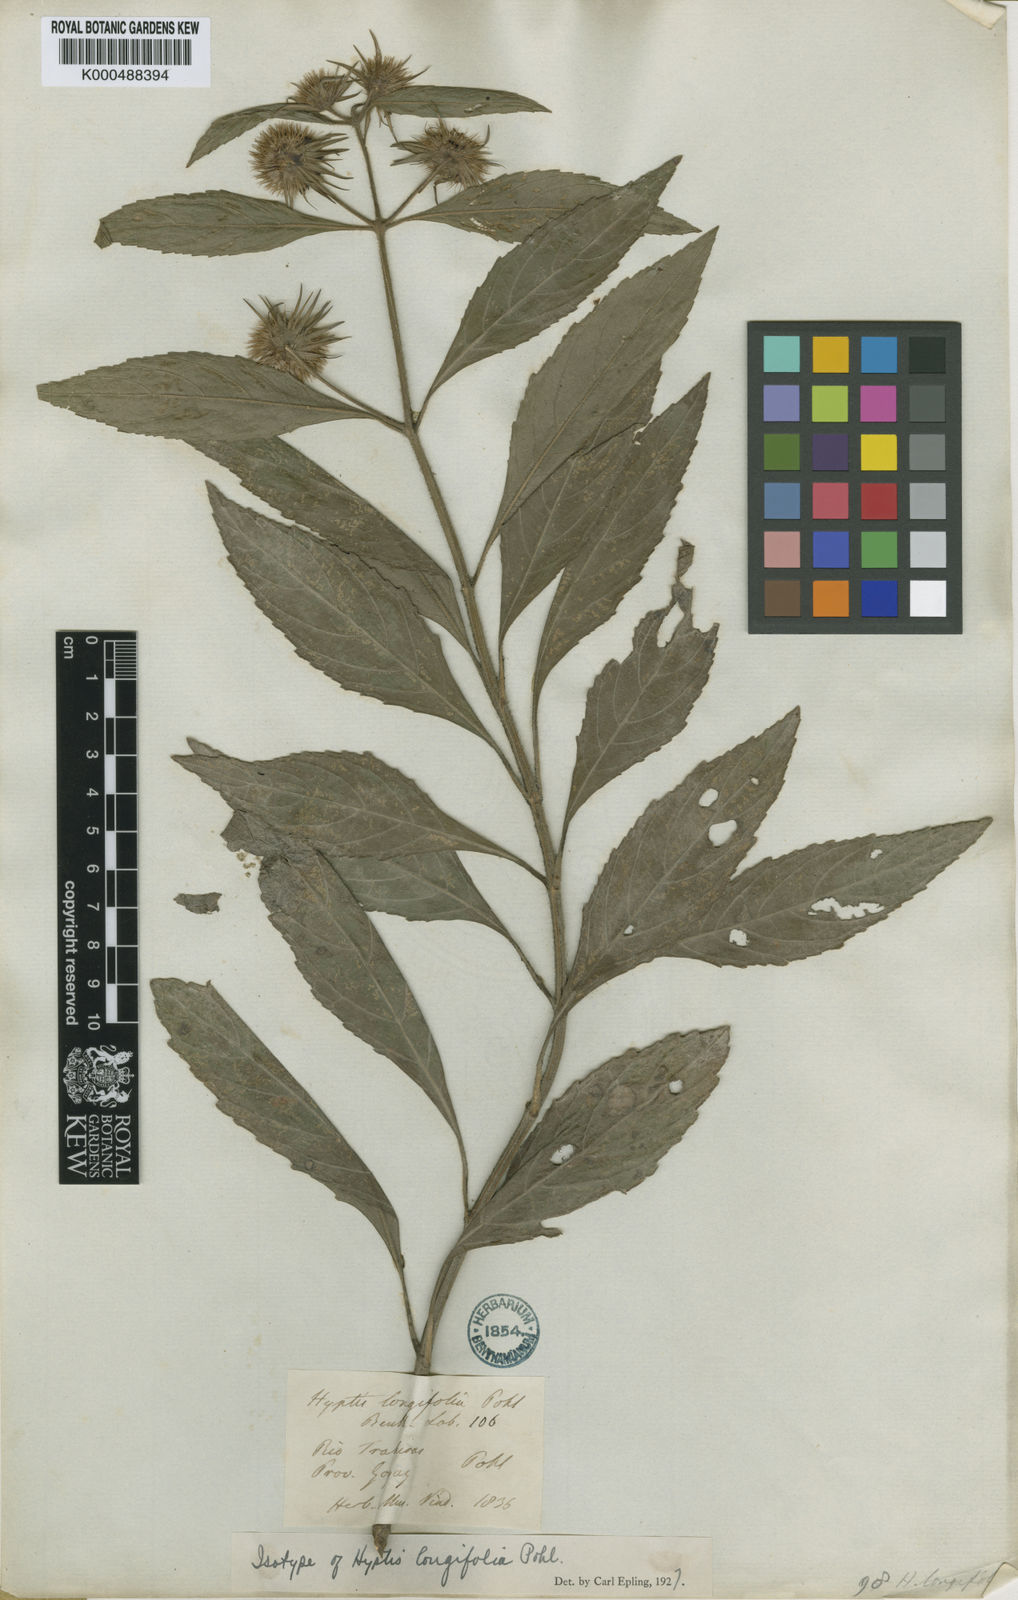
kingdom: Plantae
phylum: Tracheophyta
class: Magnoliopsida
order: Lamiales
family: Lamiaceae
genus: Hyptis
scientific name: Hyptis longifolia
